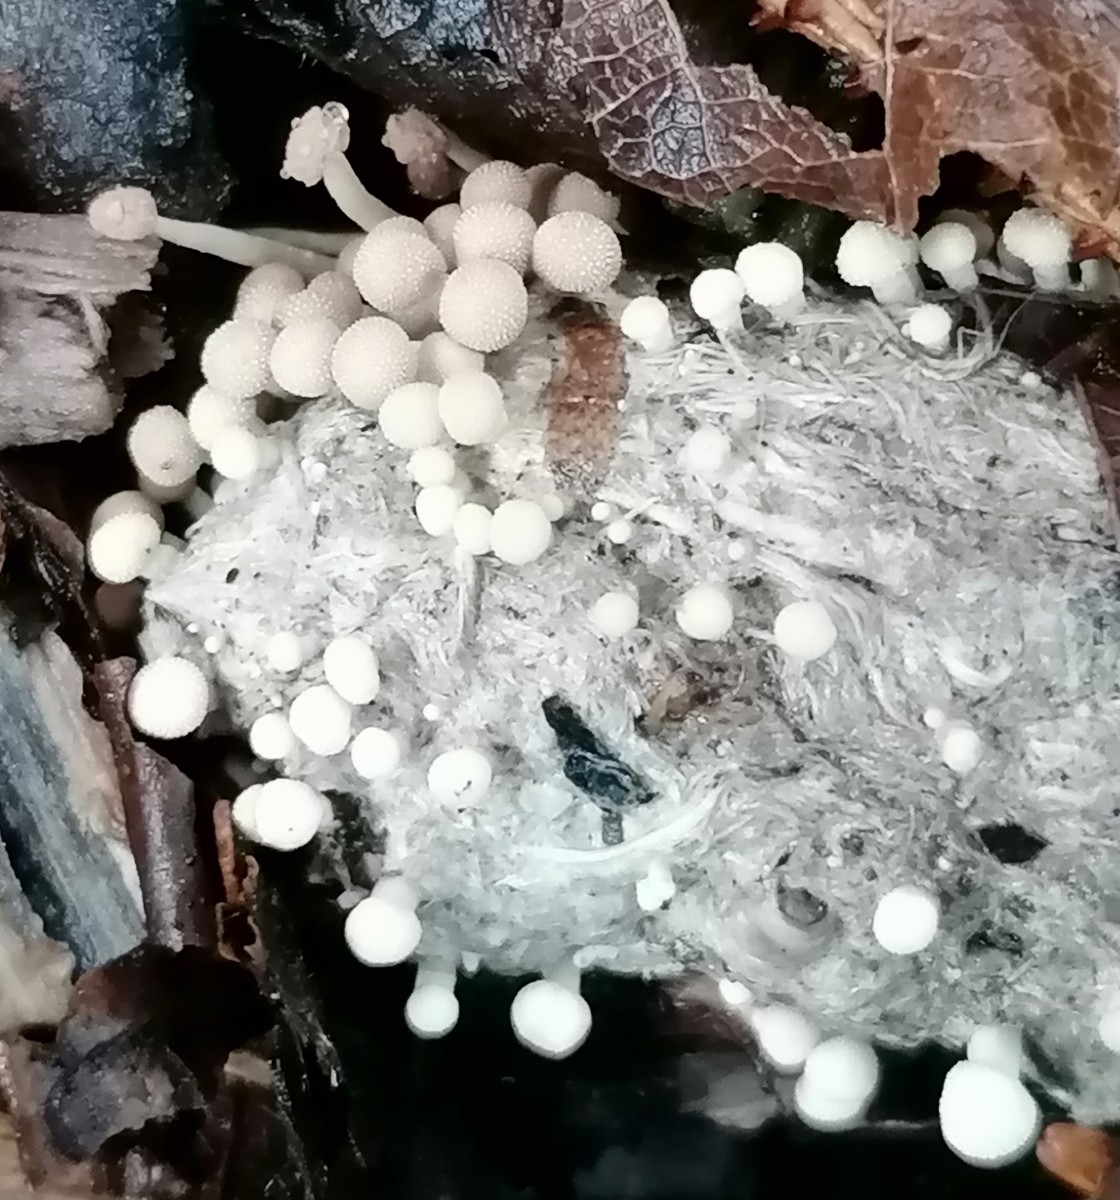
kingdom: Fungi
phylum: Ascomycota
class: Eurotiomycetes
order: Onygenales
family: Onygenaceae
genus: Onygena
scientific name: Onygena corvina
